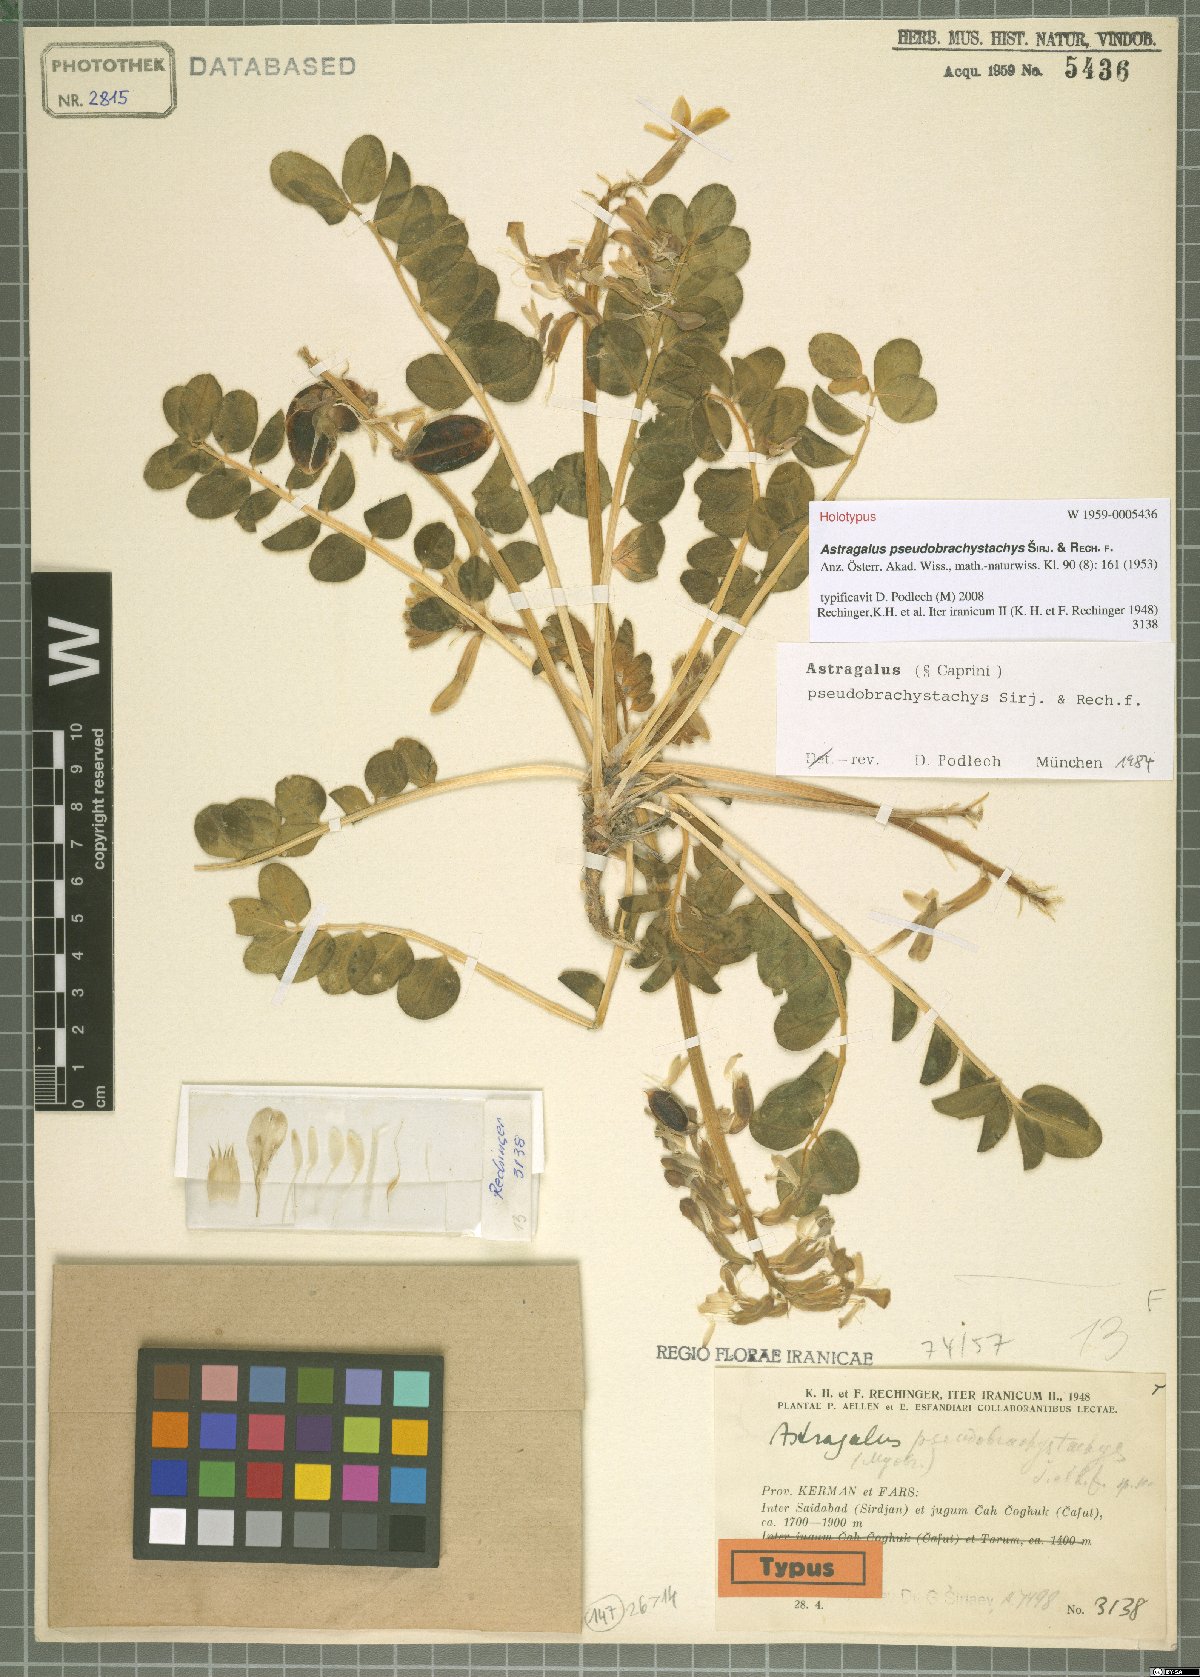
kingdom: Plantae
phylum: Tracheophyta
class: Magnoliopsida
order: Fabales
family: Fabaceae
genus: Astragalus
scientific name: Astragalus pseudobrachystachys
